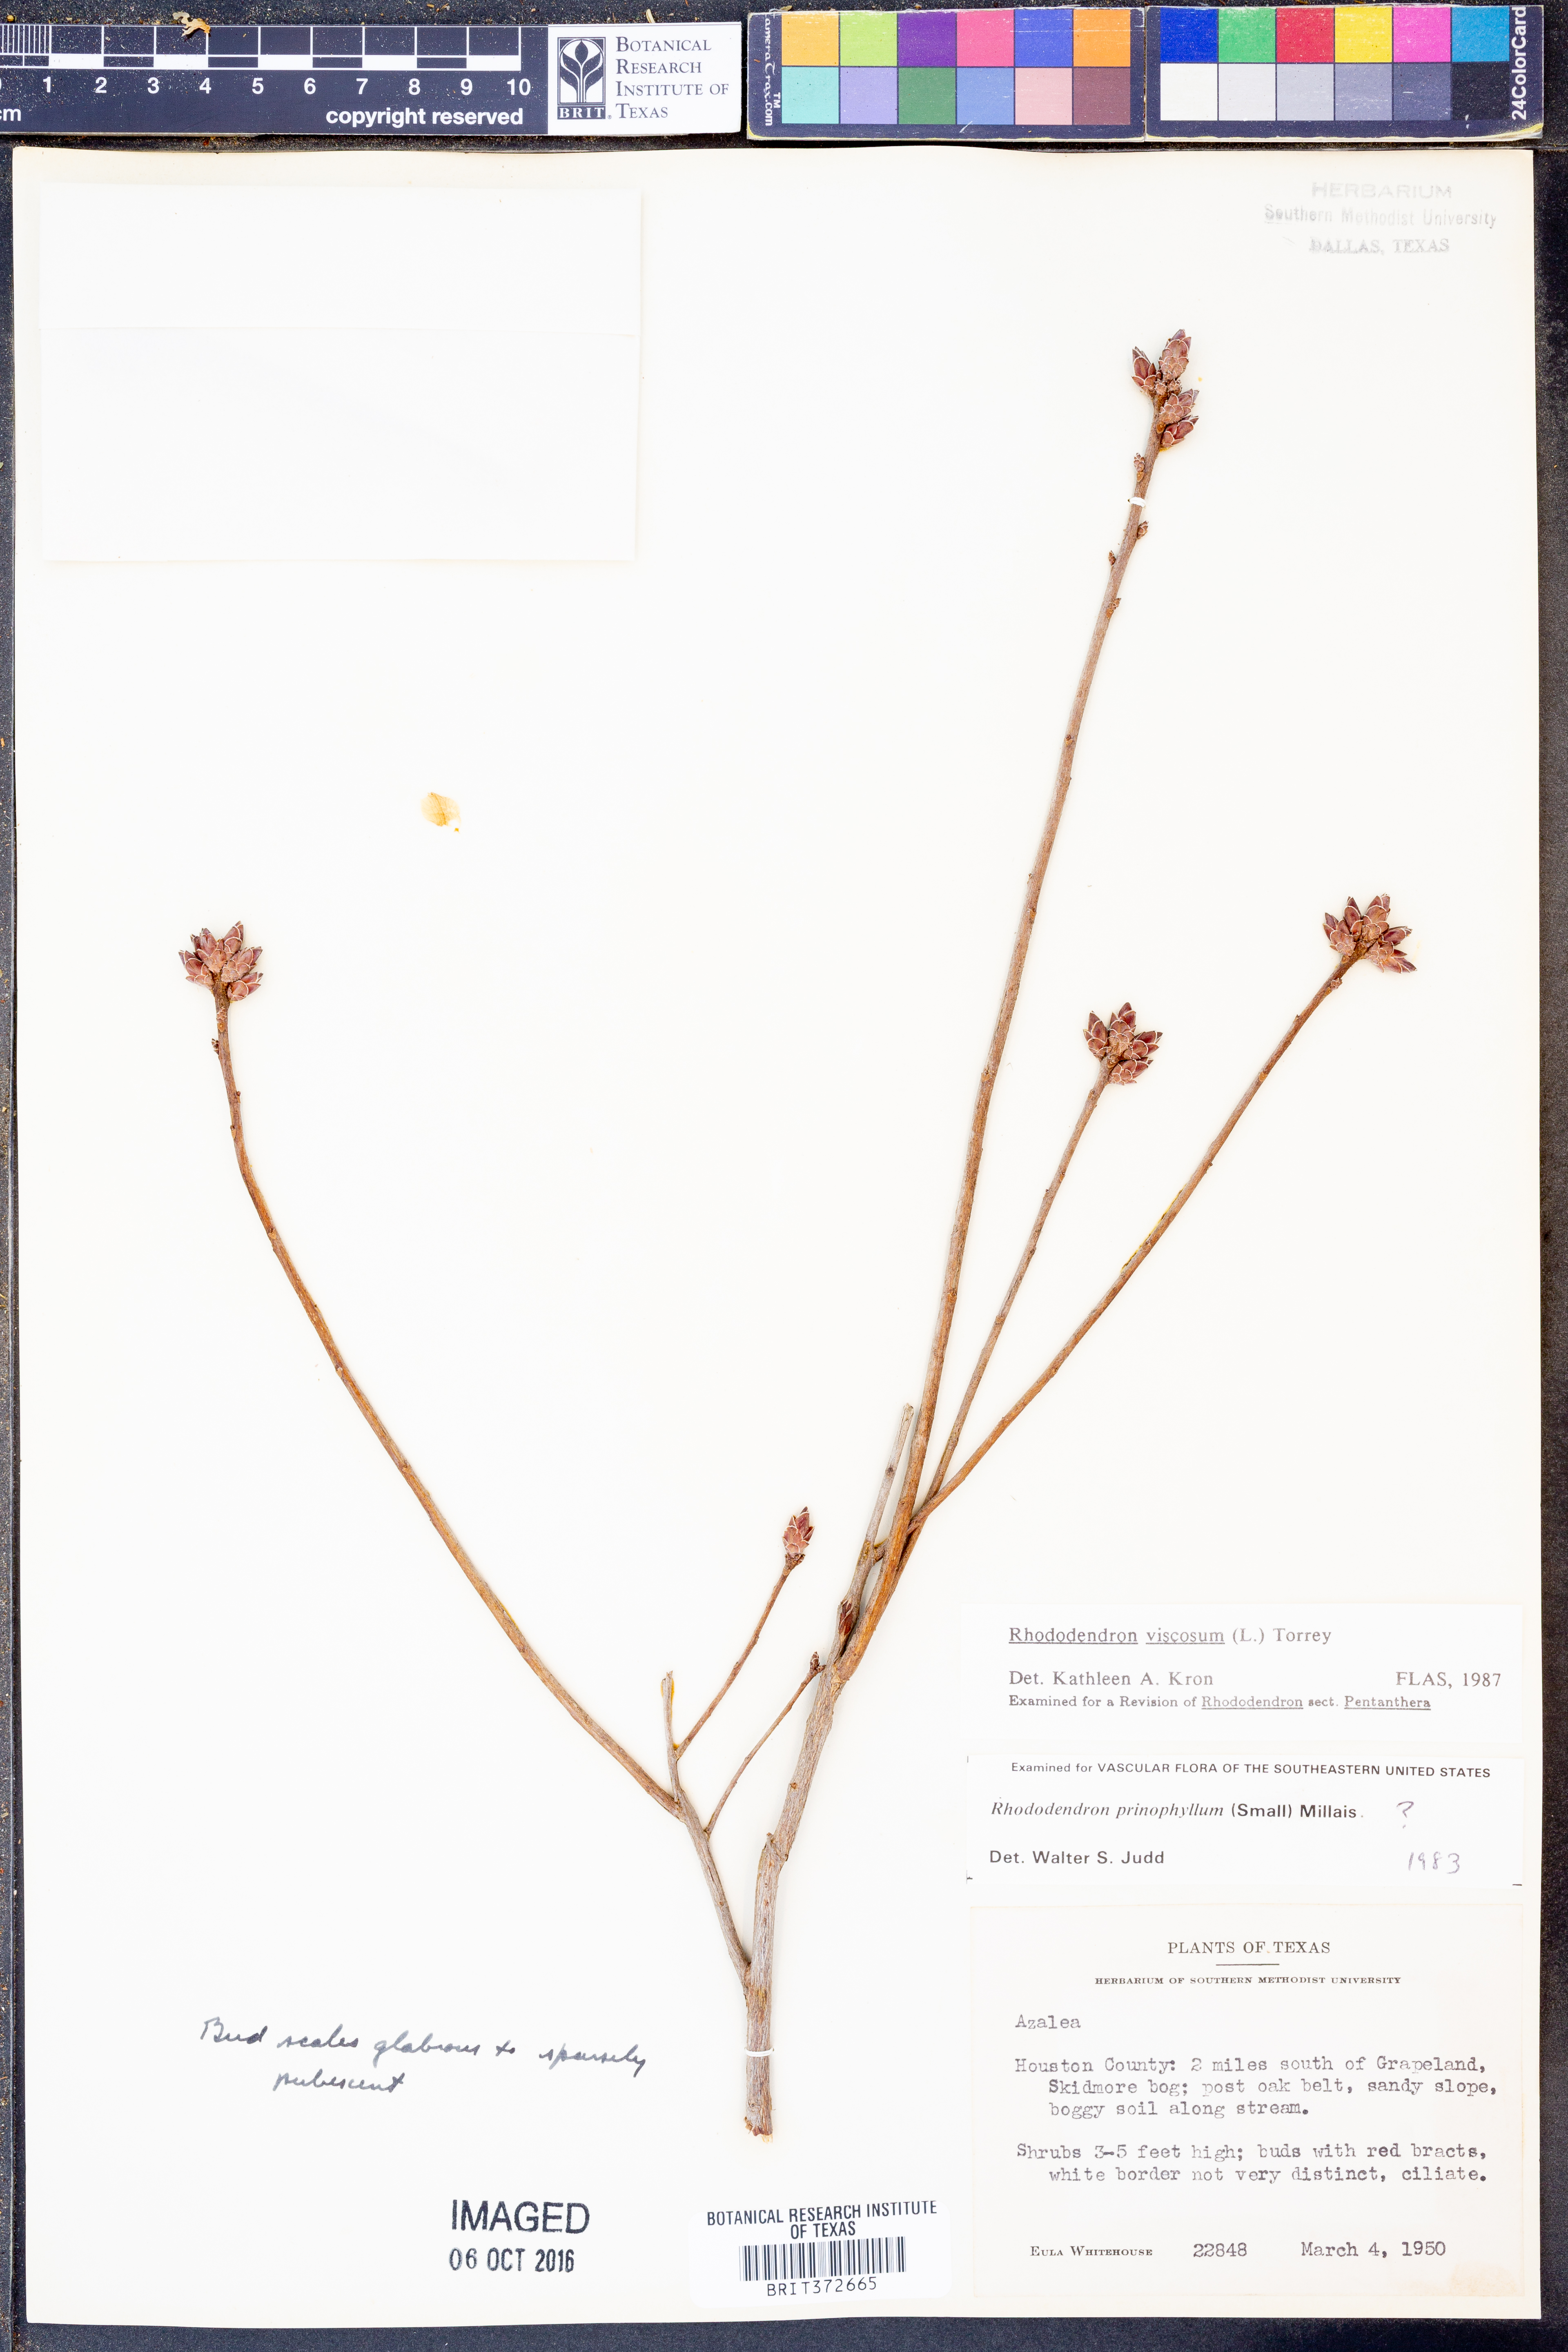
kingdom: Plantae
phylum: Tracheophyta
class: Magnoliopsida
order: Ericales
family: Ericaceae
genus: Rhododendron
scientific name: Rhododendron viscosum
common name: Clammy azalea
